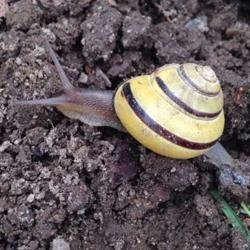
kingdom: Animalia
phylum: Mollusca
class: Gastropoda
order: Stylommatophora
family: Helicidae
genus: Cepaea
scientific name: Cepaea nemoralis
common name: Lundsnegl
